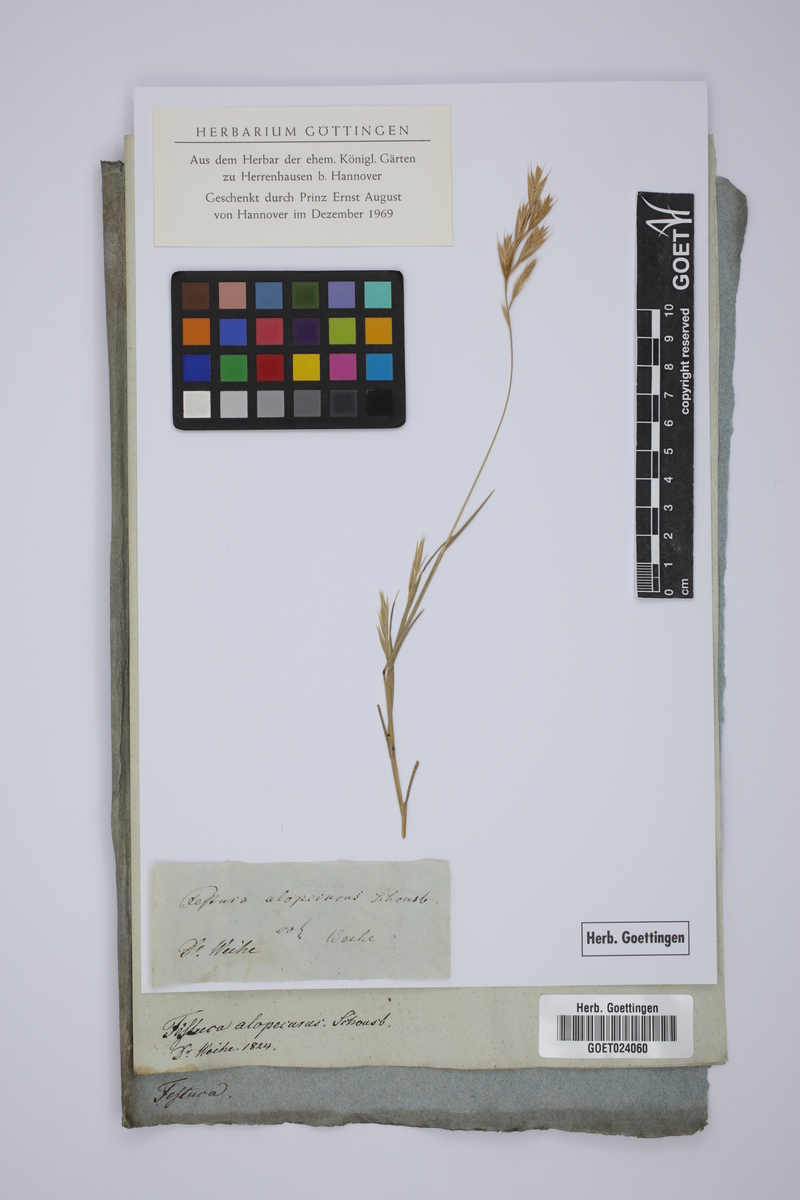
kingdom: Plantae
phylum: Tracheophyta
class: Liliopsida
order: Poales
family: Poaceae
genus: Festuca
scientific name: Festuca alopecuros
